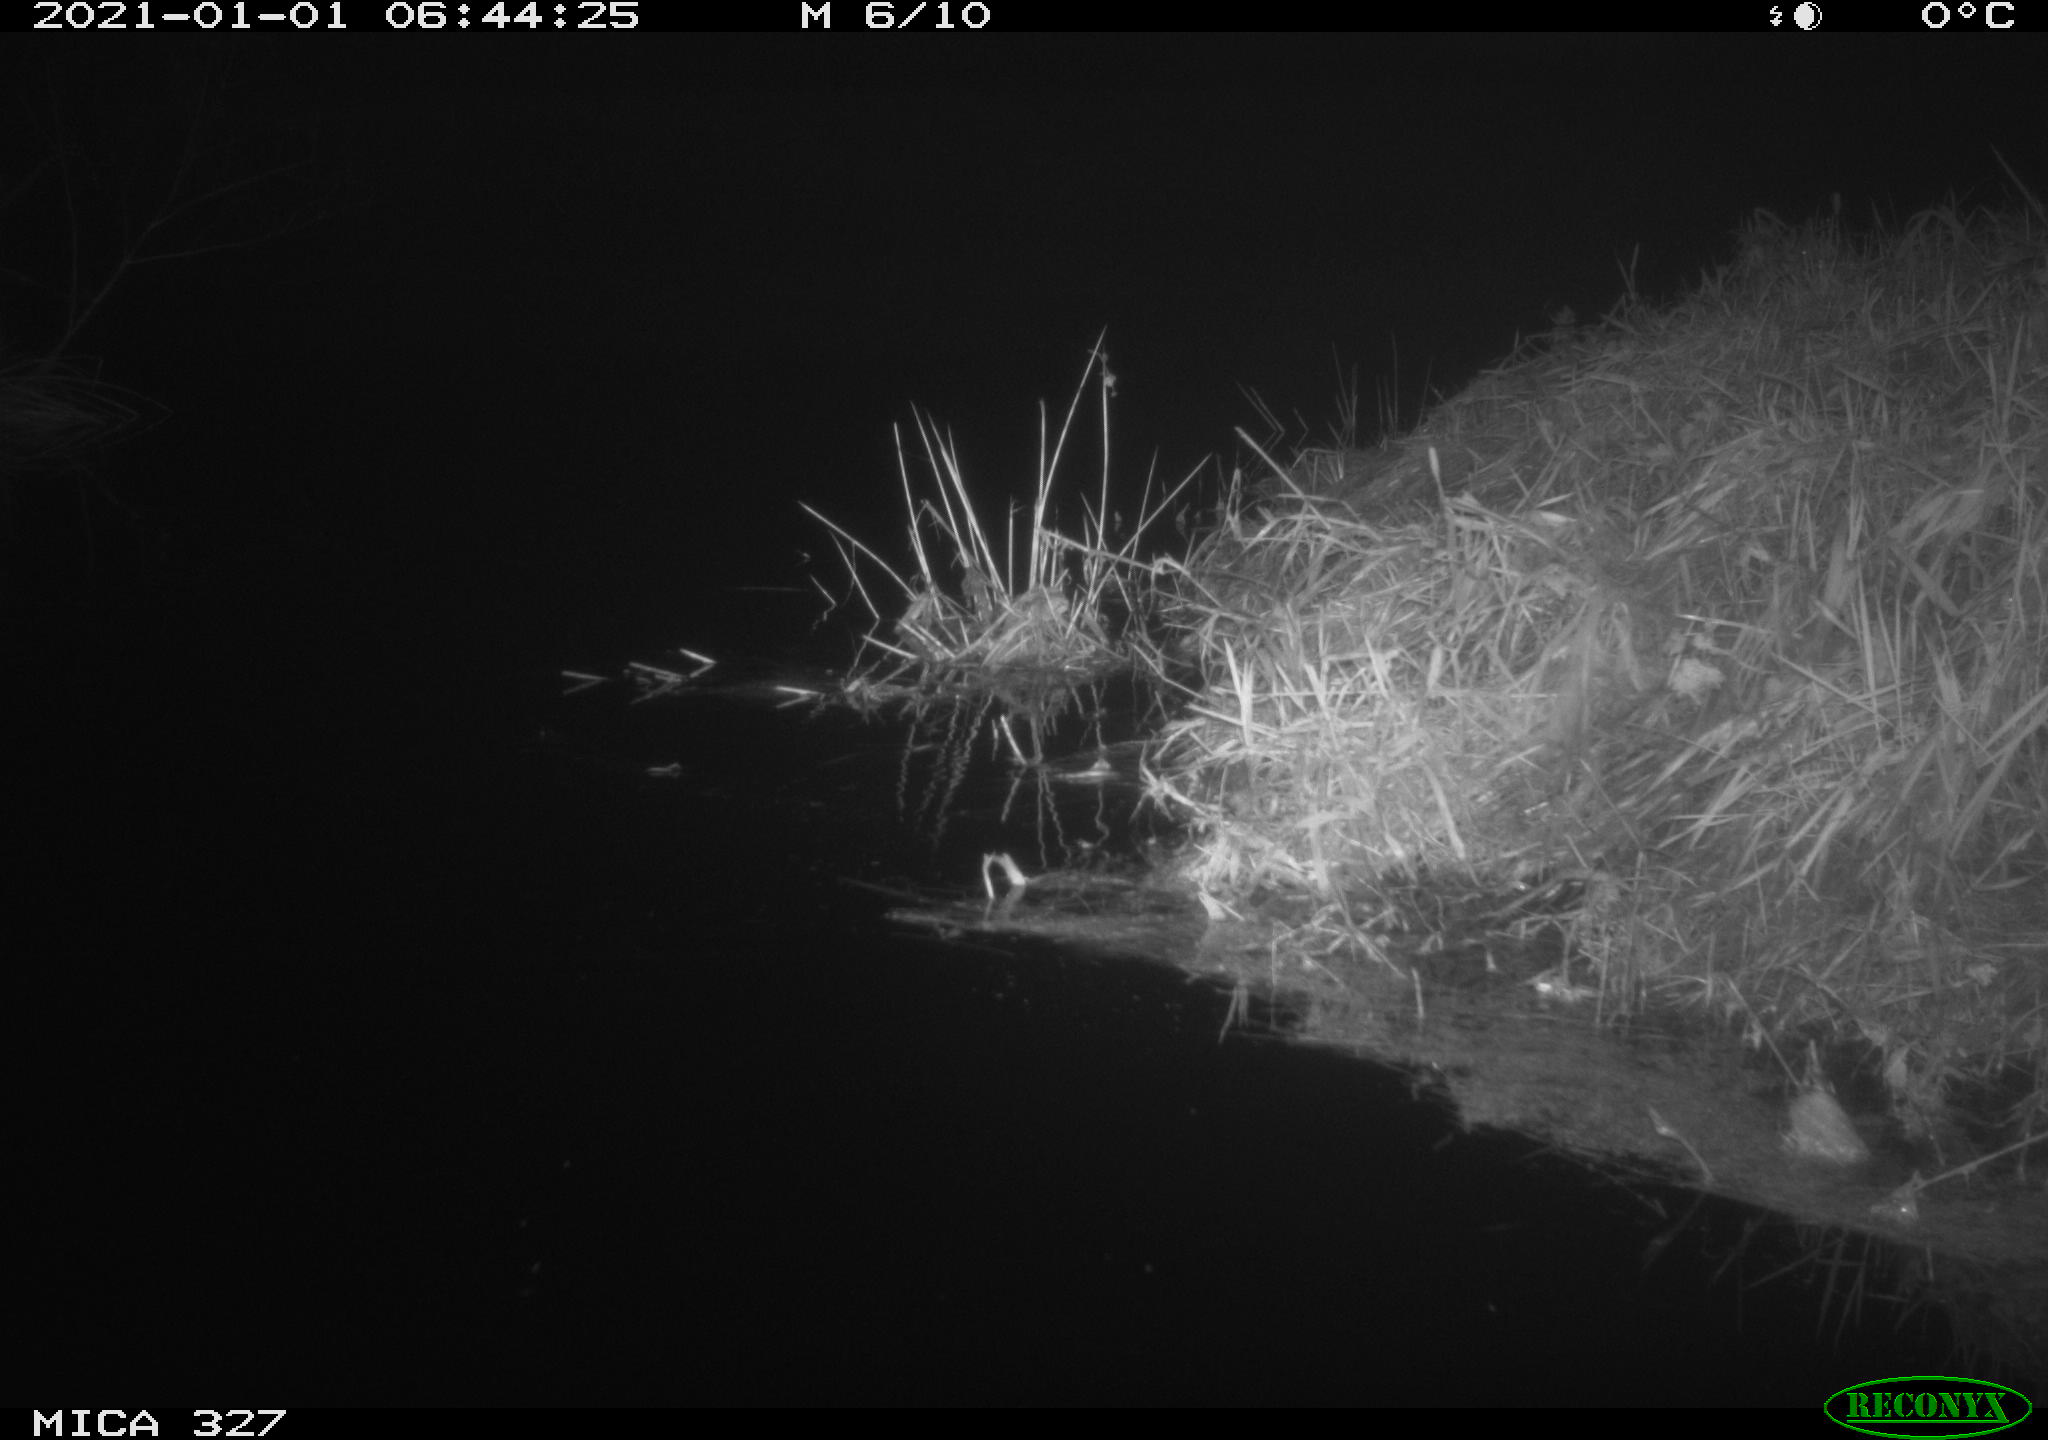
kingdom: Animalia
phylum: Chordata
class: Mammalia
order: Rodentia
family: Cricetidae
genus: Ondatra
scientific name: Ondatra zibethicus
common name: Muskrat
